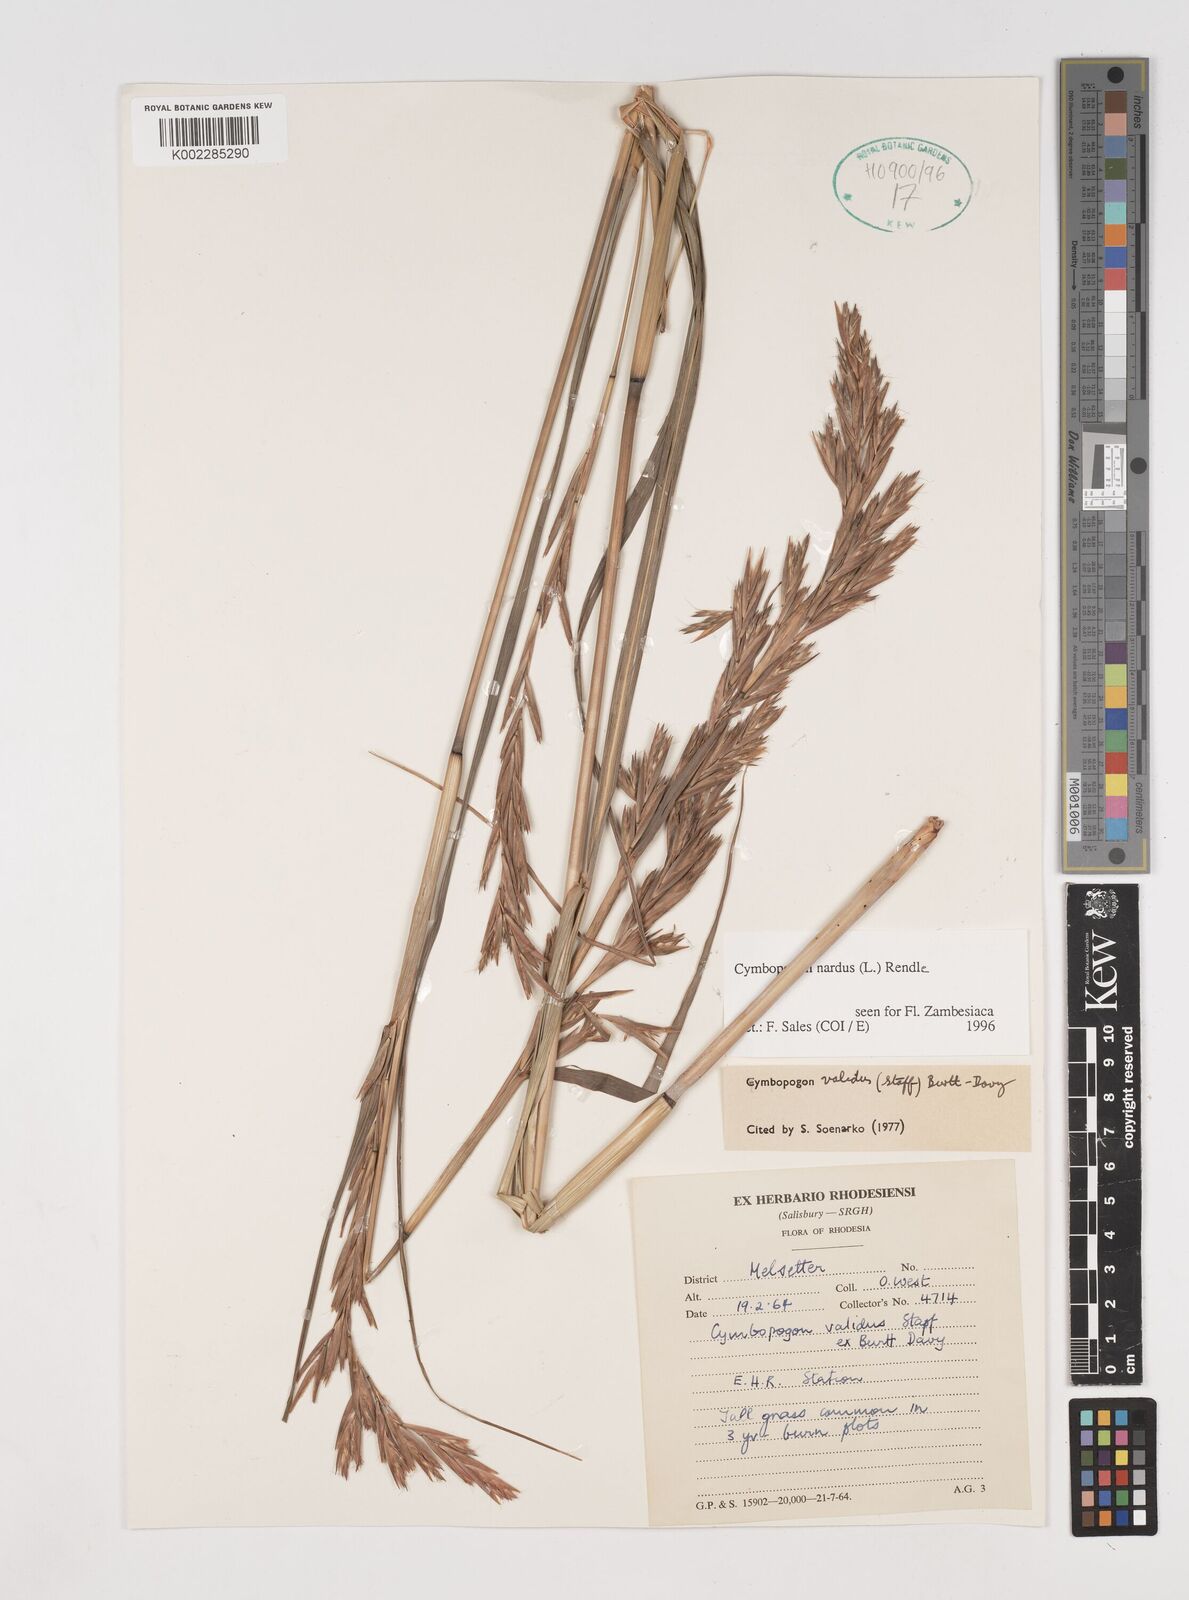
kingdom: Plantae
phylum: Tracheophyta
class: Liliopsida
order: Poales
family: Poaceae
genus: Cymbopogon
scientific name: Cymbopogon nardus
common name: Giant turpentine grass
